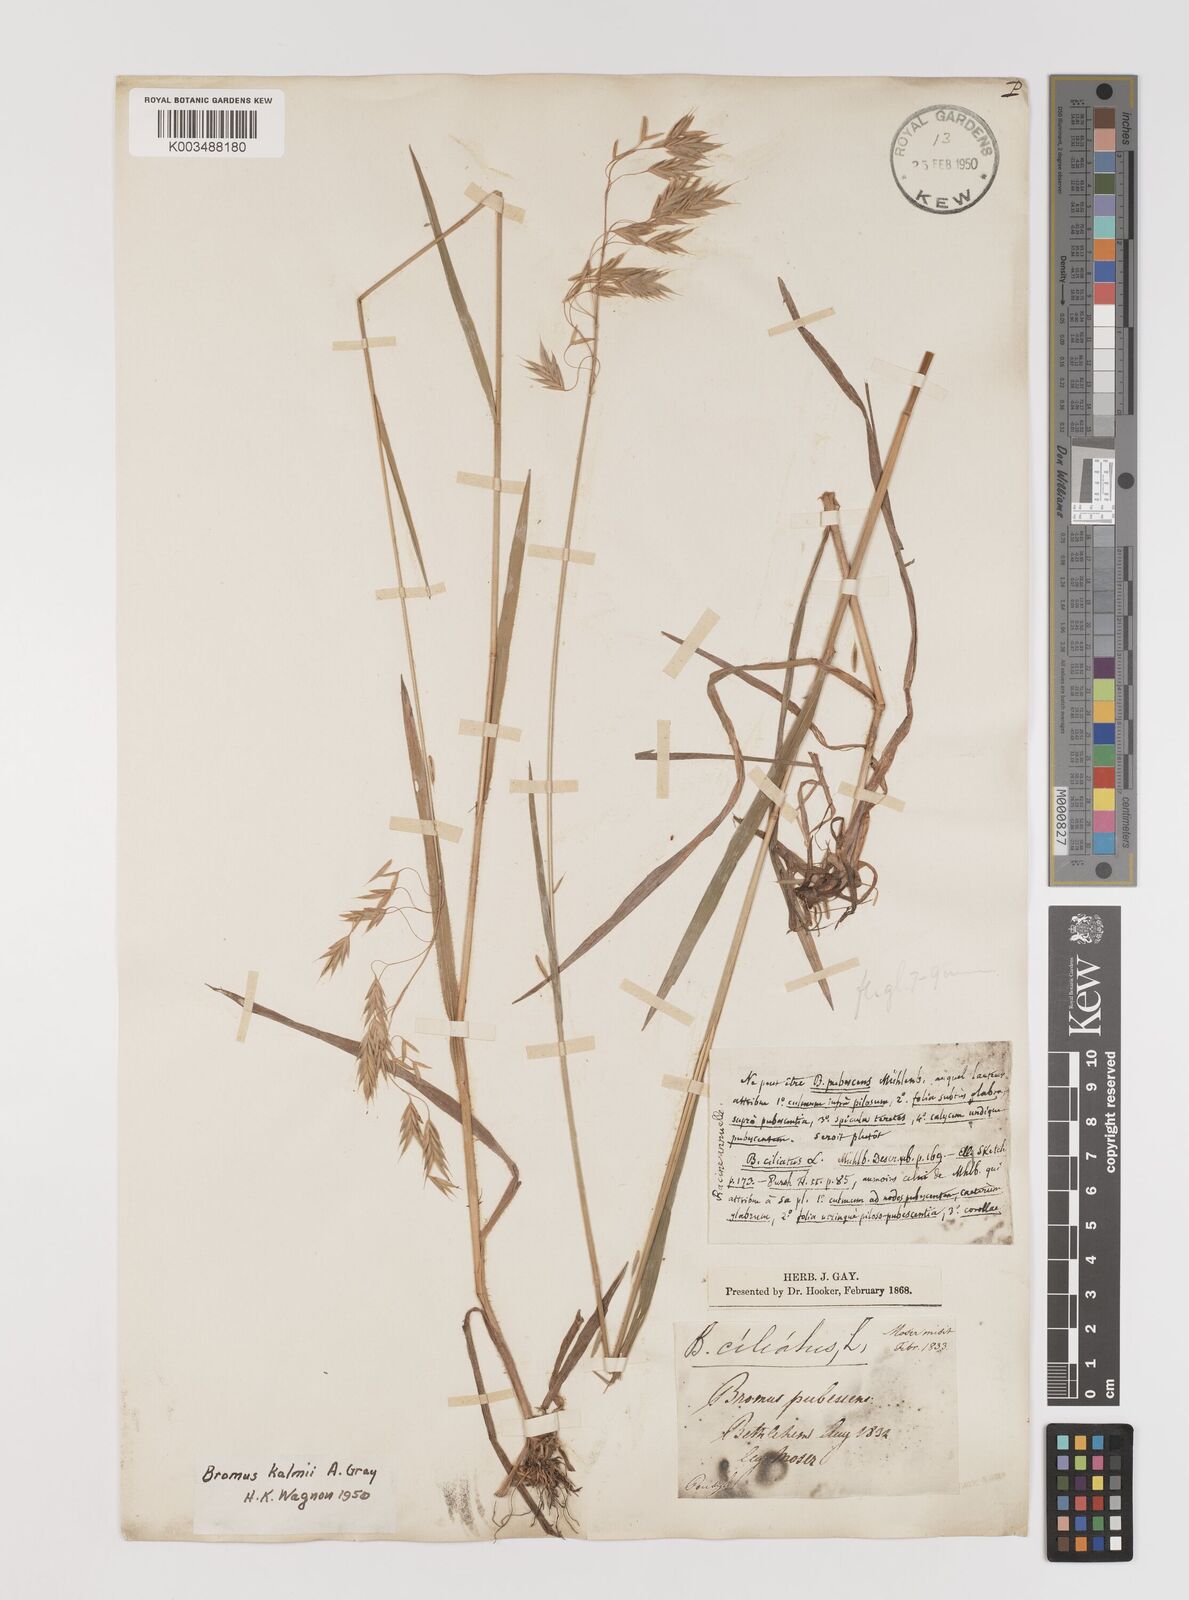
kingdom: Plantae
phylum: Tracheophyta
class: Liliopsida
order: Poales
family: Poaceae
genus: Bromus
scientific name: Bromus kalmii
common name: Kalm brome
